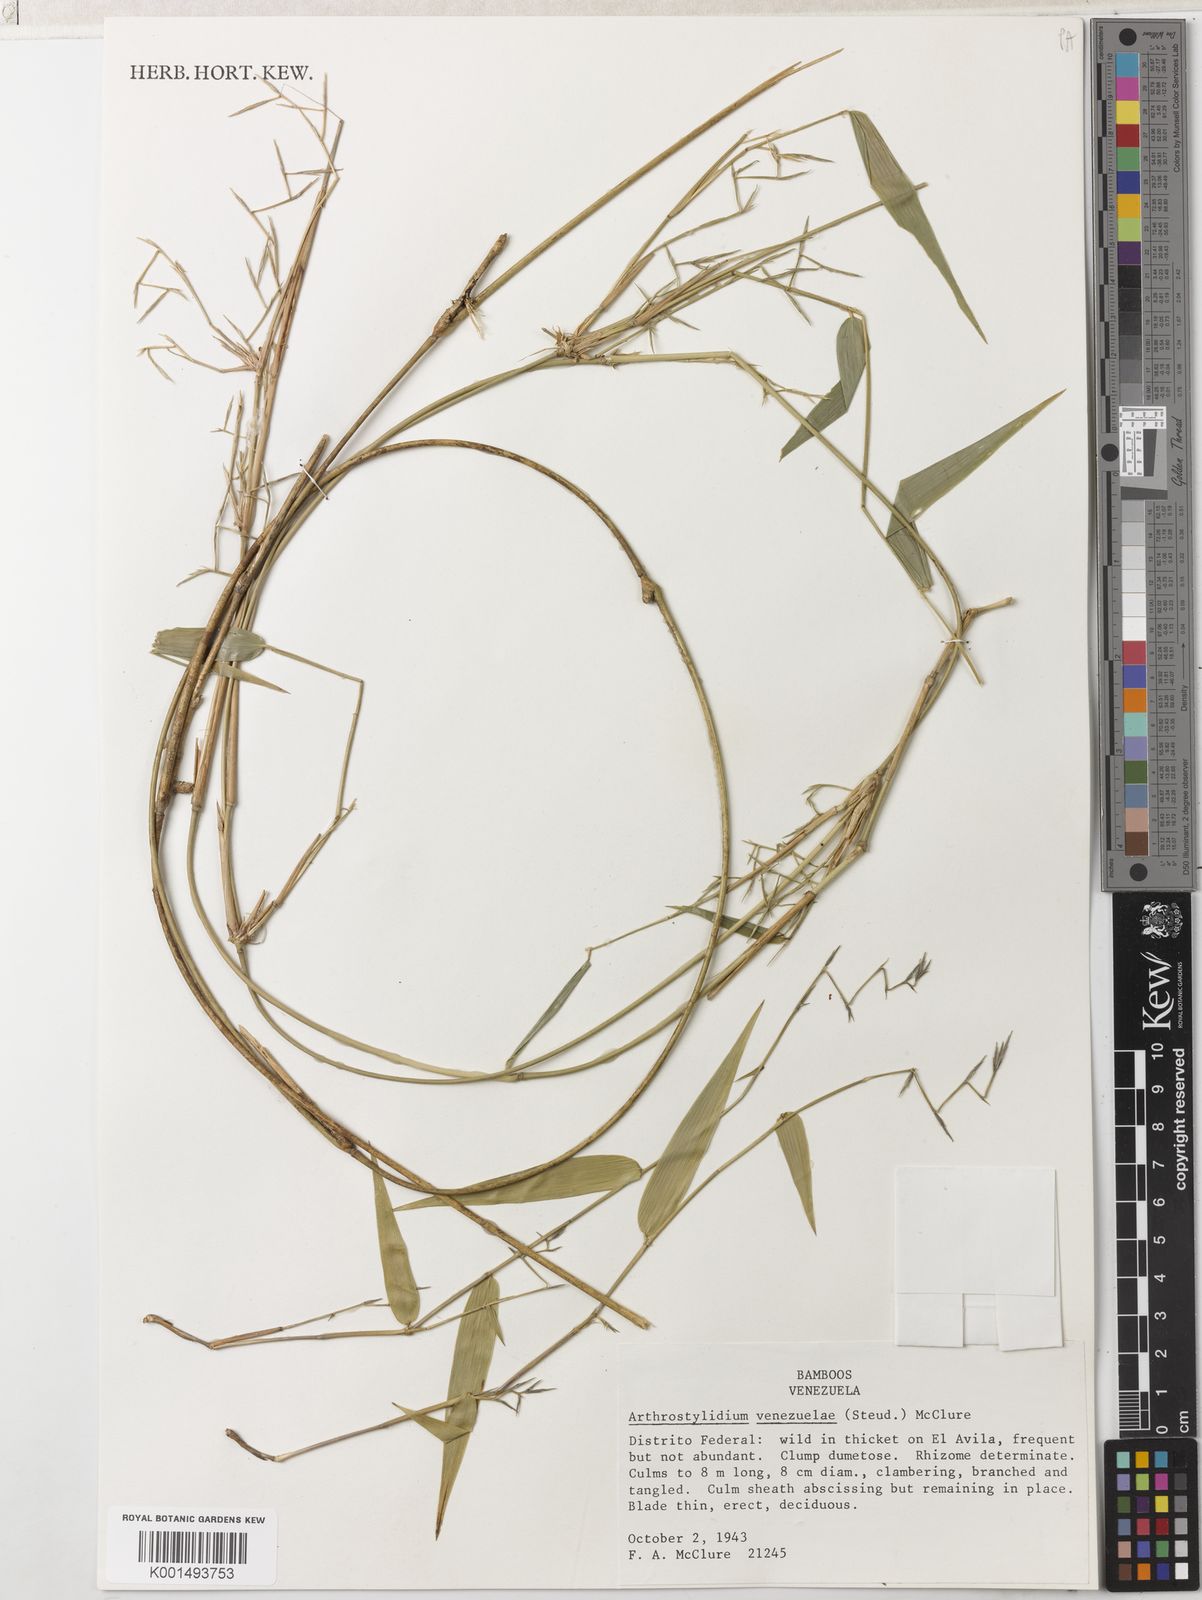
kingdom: Plantae
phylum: Tracheophyta
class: Liliopsida
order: Poales
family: Poaceae
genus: Arthrostylidium
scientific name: Arthrostylidium venezuelae
